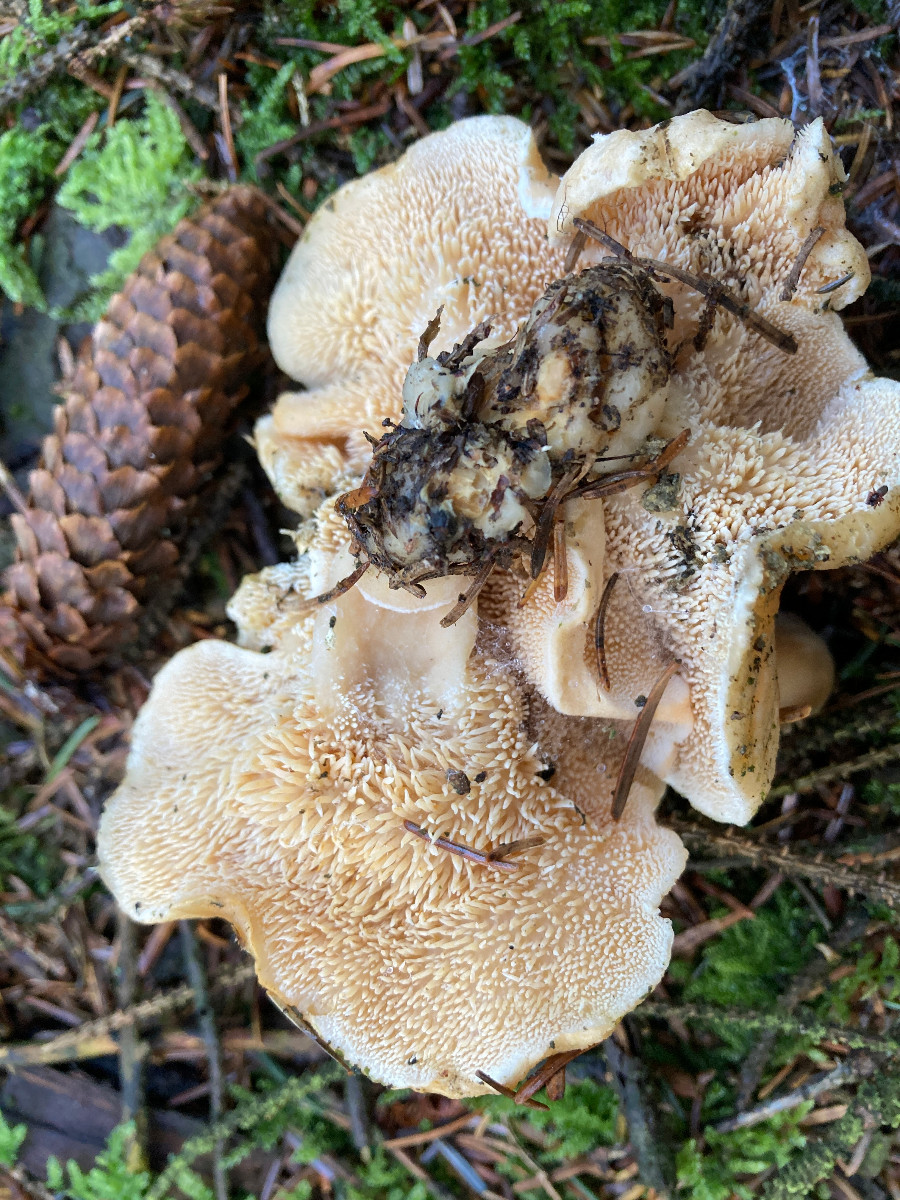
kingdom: Fungi
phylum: Basidiomycota
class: Agaricomycetes
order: Cantharellales
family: Hydnaceae
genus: Hydnum
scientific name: Hydnum repandum
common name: almindelig pigsvamp
